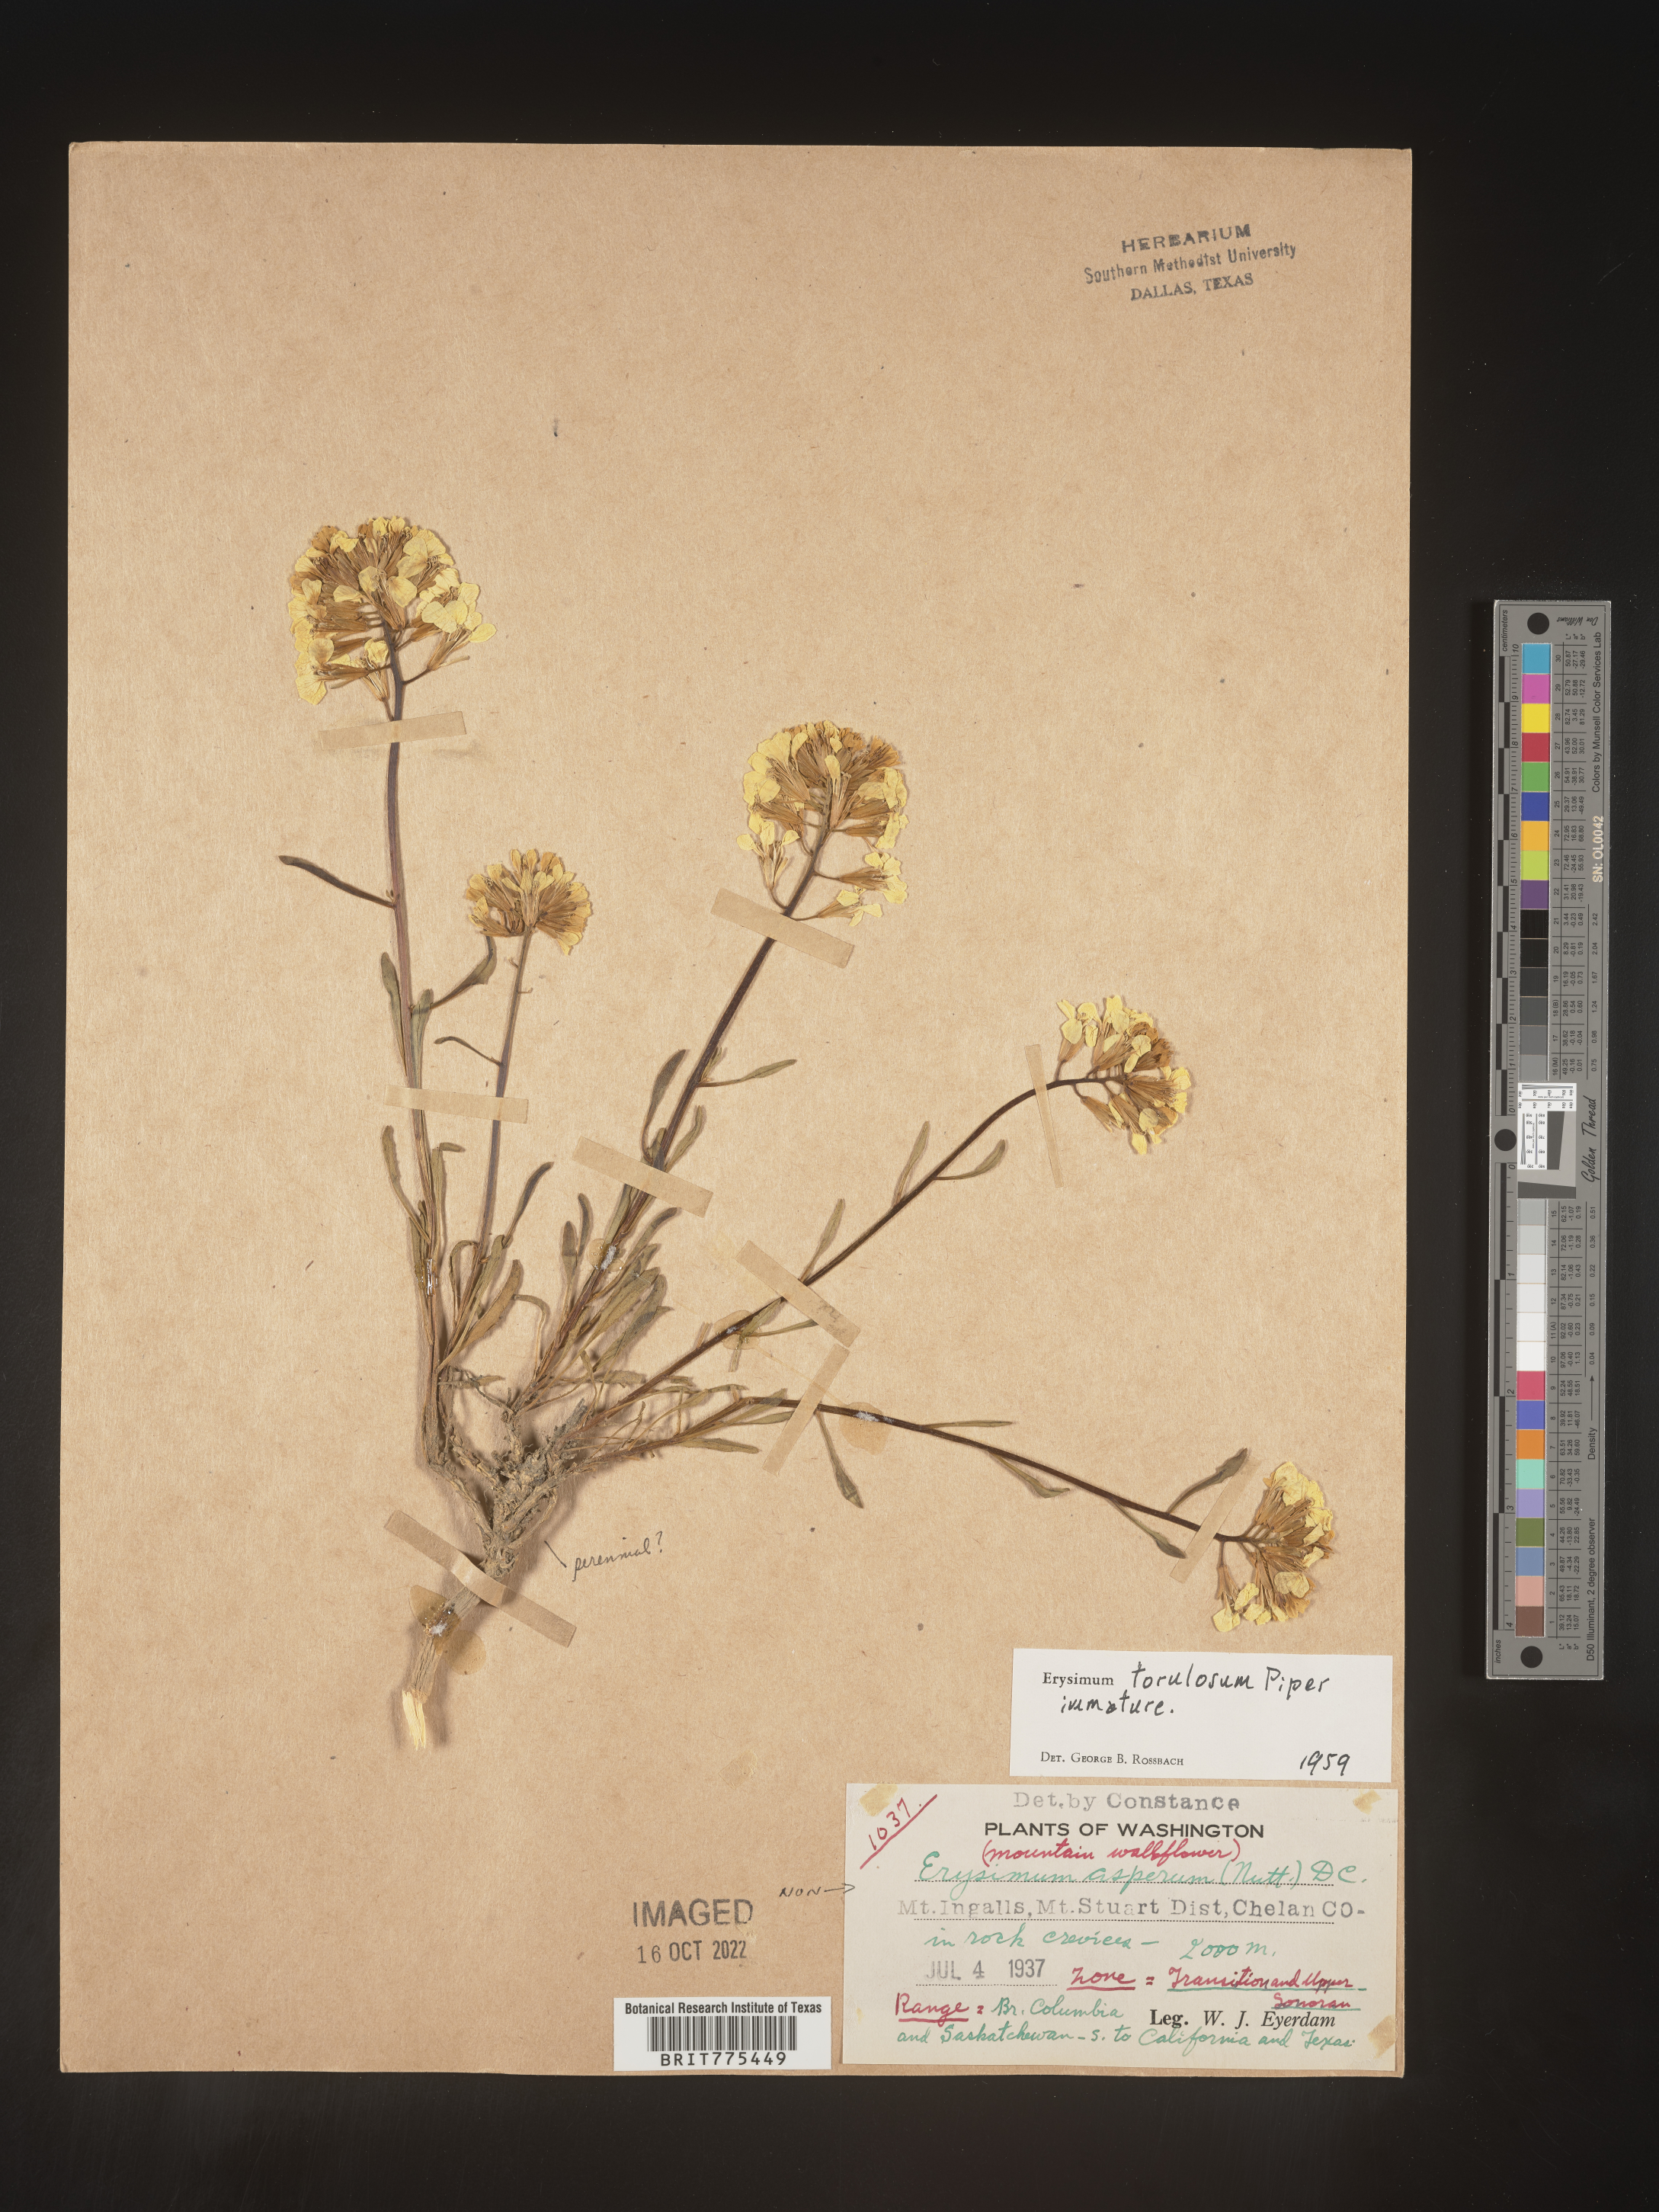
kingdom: Plantae
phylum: Tracheophyta
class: Magnoliopsida
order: Brassicales
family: Brassicaceae
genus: Erysimum
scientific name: Erysimum
